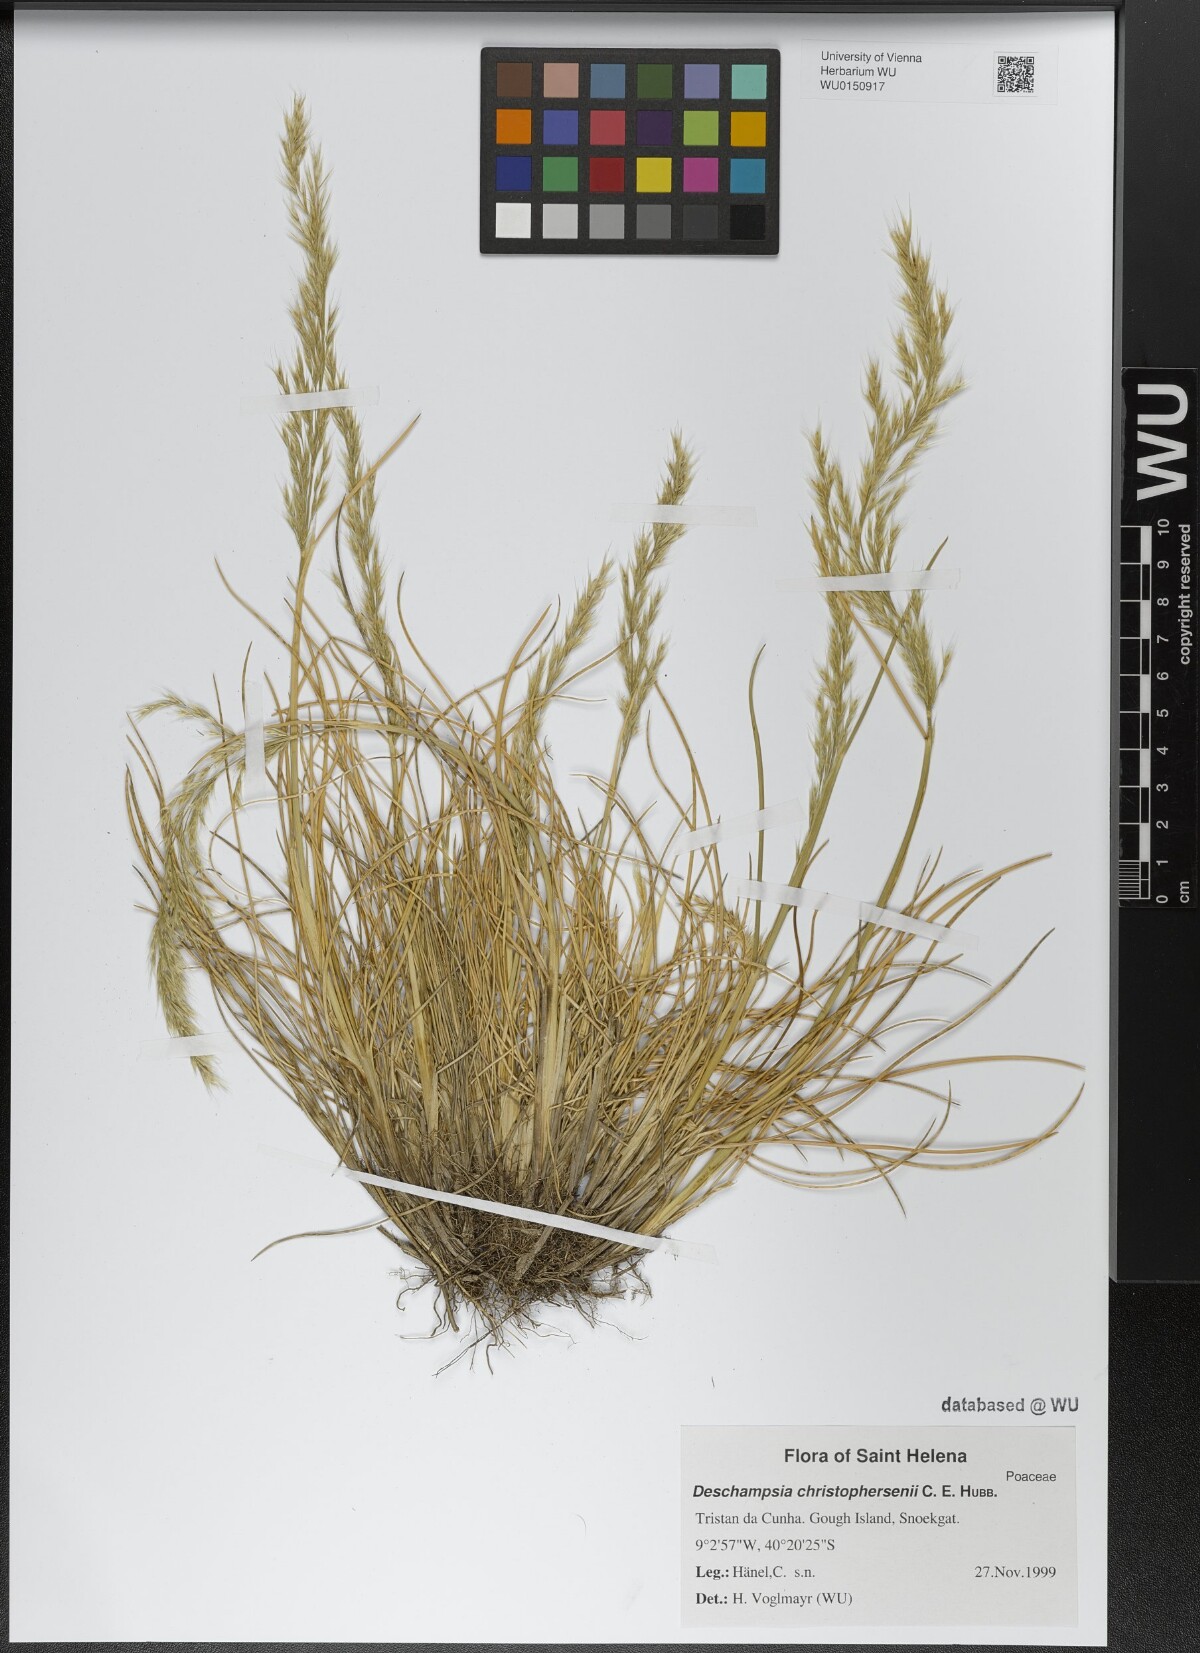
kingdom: Plantae
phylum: Tracheophyta
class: Liliopsida
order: Poales
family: Poaceae
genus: Deschampsia
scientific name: Deschampsia christophersenii
